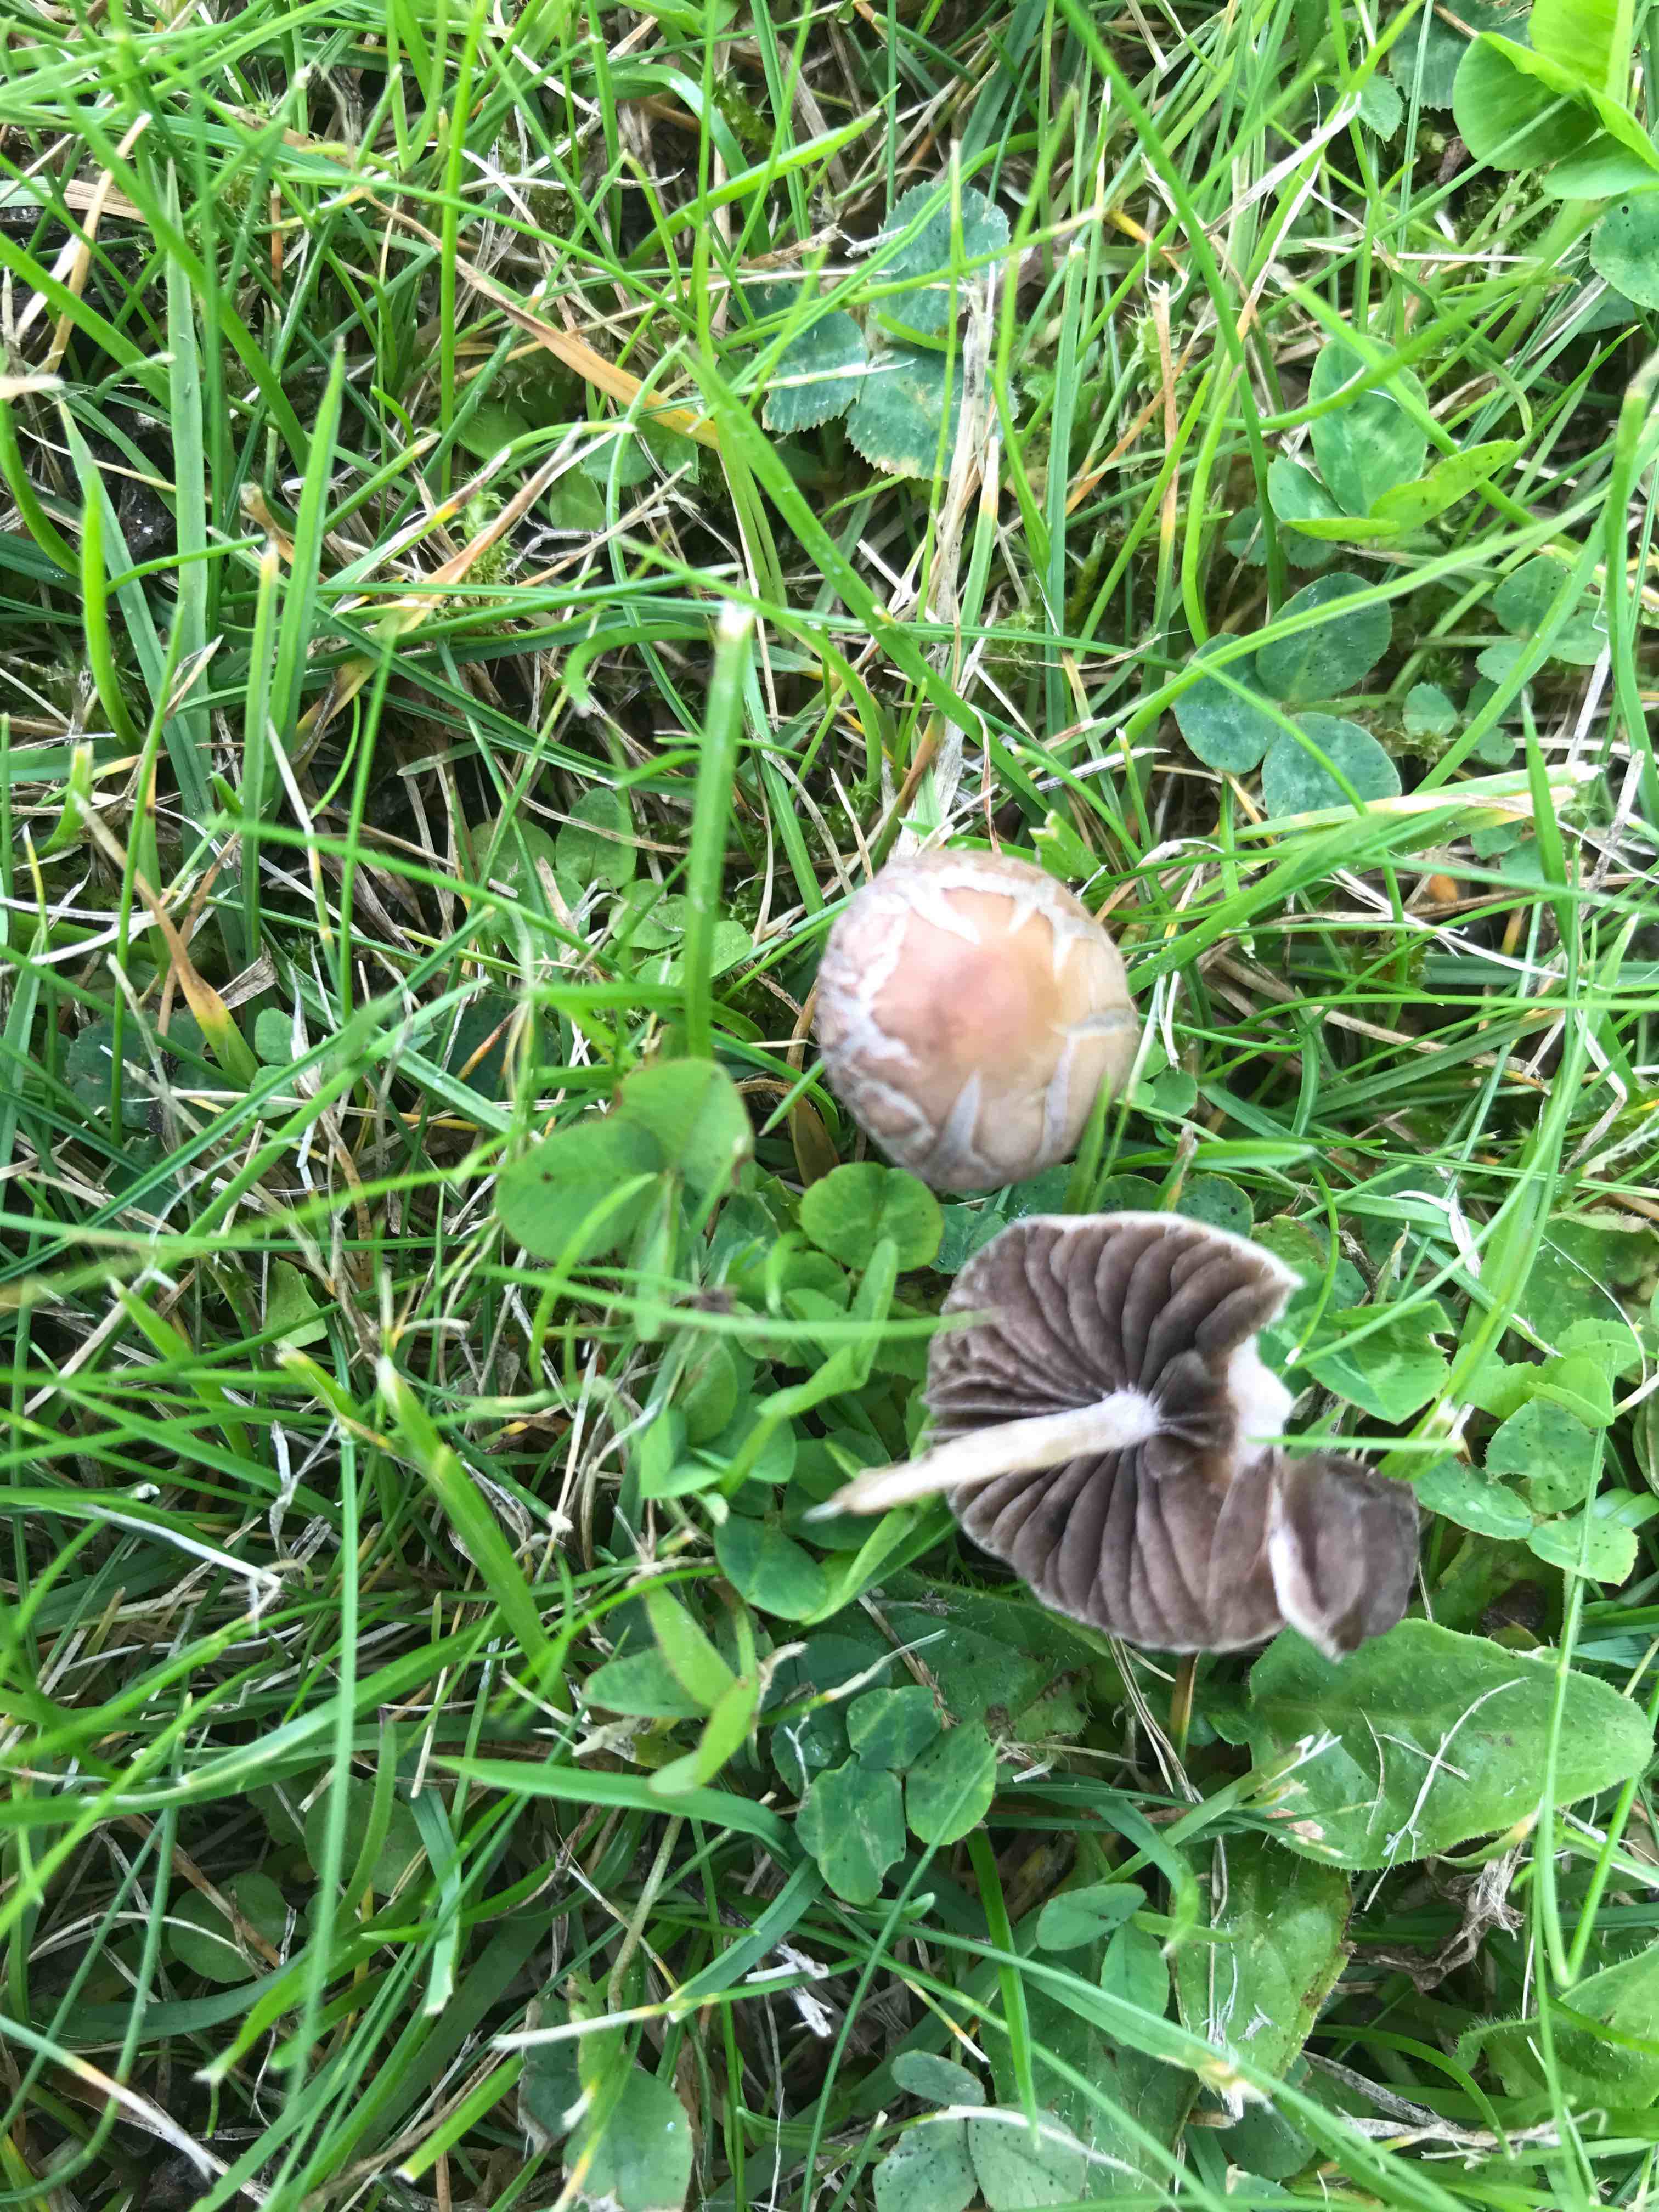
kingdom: Fungi
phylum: Basidiomycota
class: Agaricomycetes
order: Agaricales
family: Bolbitiaceae
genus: Panaeolina
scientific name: Panaeolina foenisecii
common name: høslætsvamp
